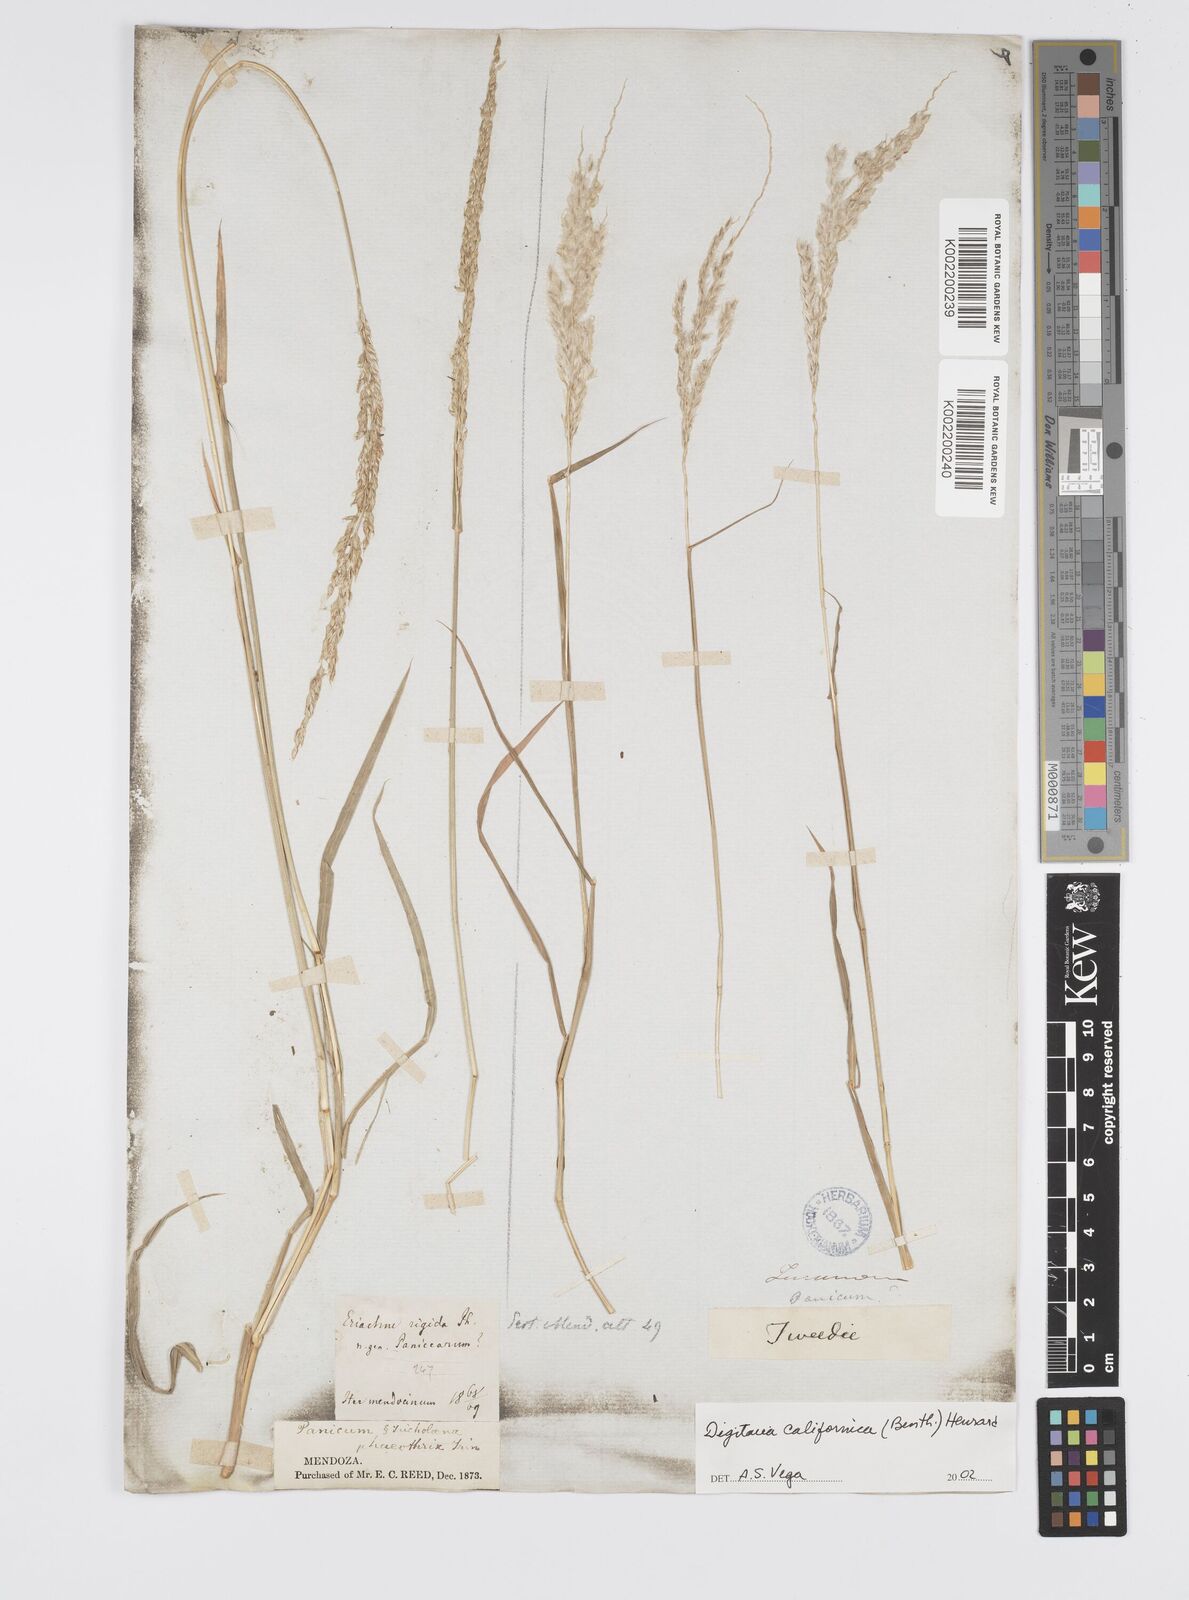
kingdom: Plantae
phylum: Tracheophyta
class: Liliopsida
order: Poales
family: Poaceae
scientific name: Poaceae
